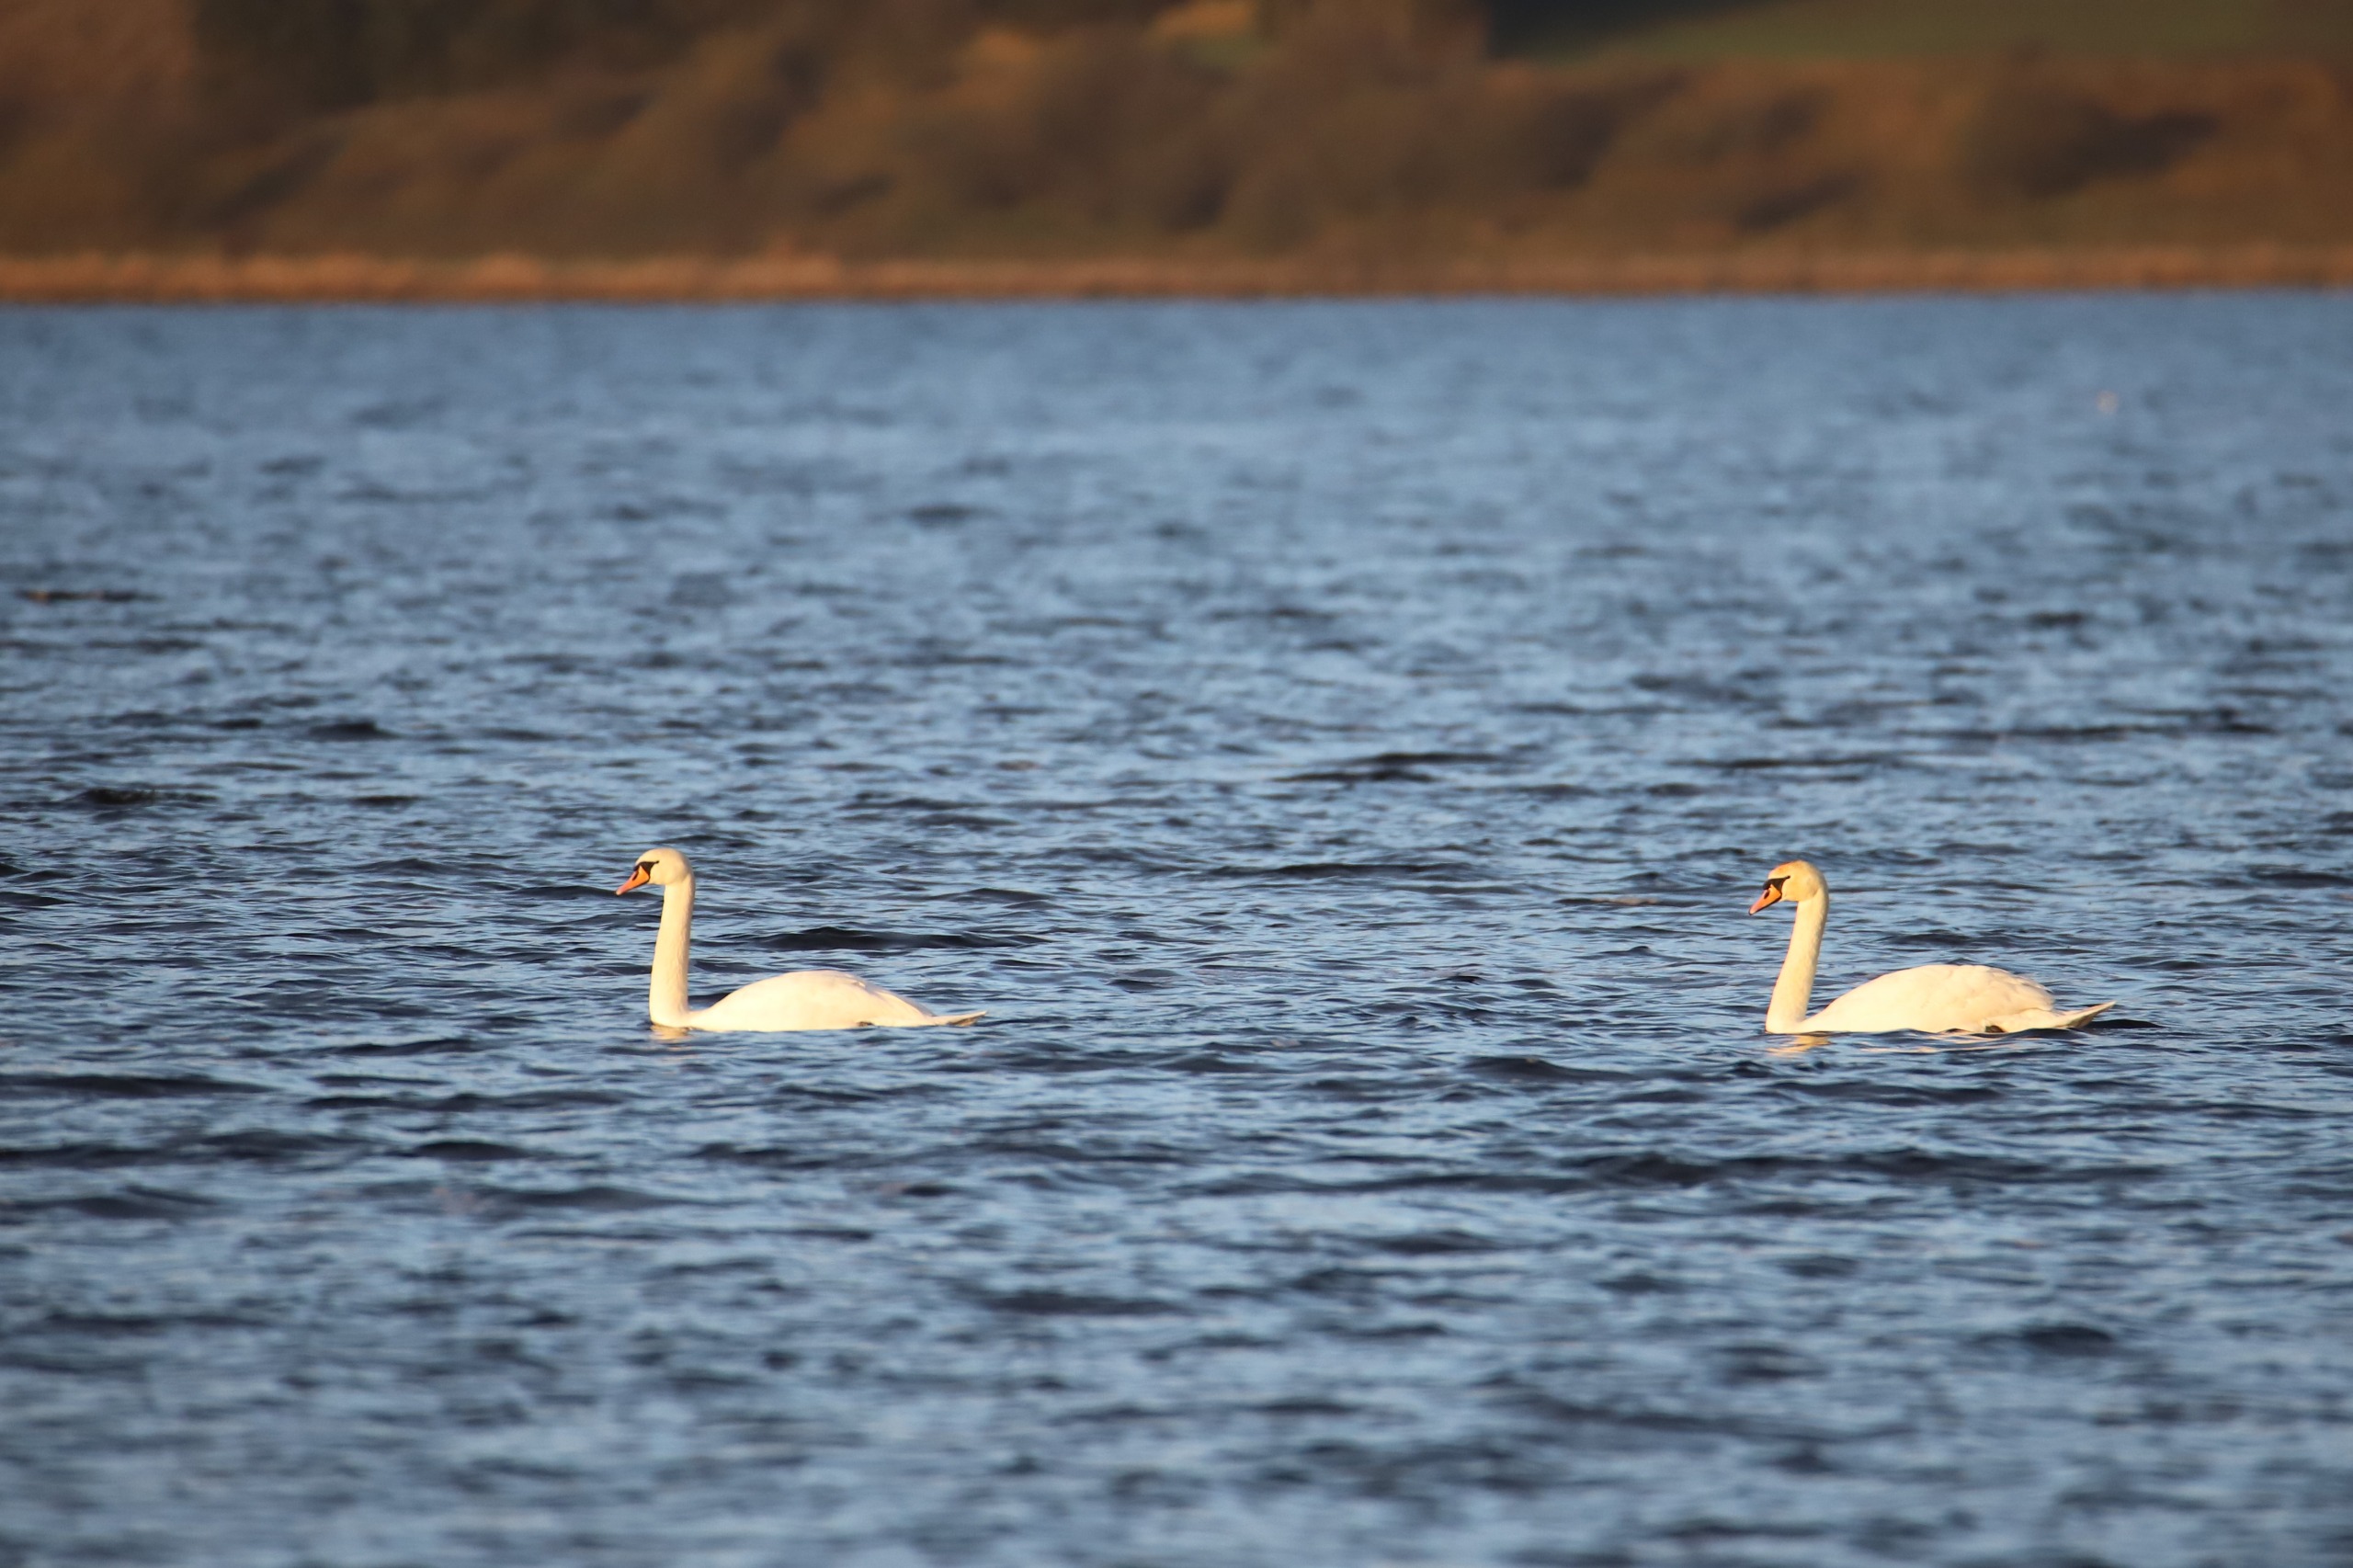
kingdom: Animalia
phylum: Chordata
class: Aves
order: Anseriformes
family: Anatidae
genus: Cygnus
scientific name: Cygnus olor
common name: Knopsvane
